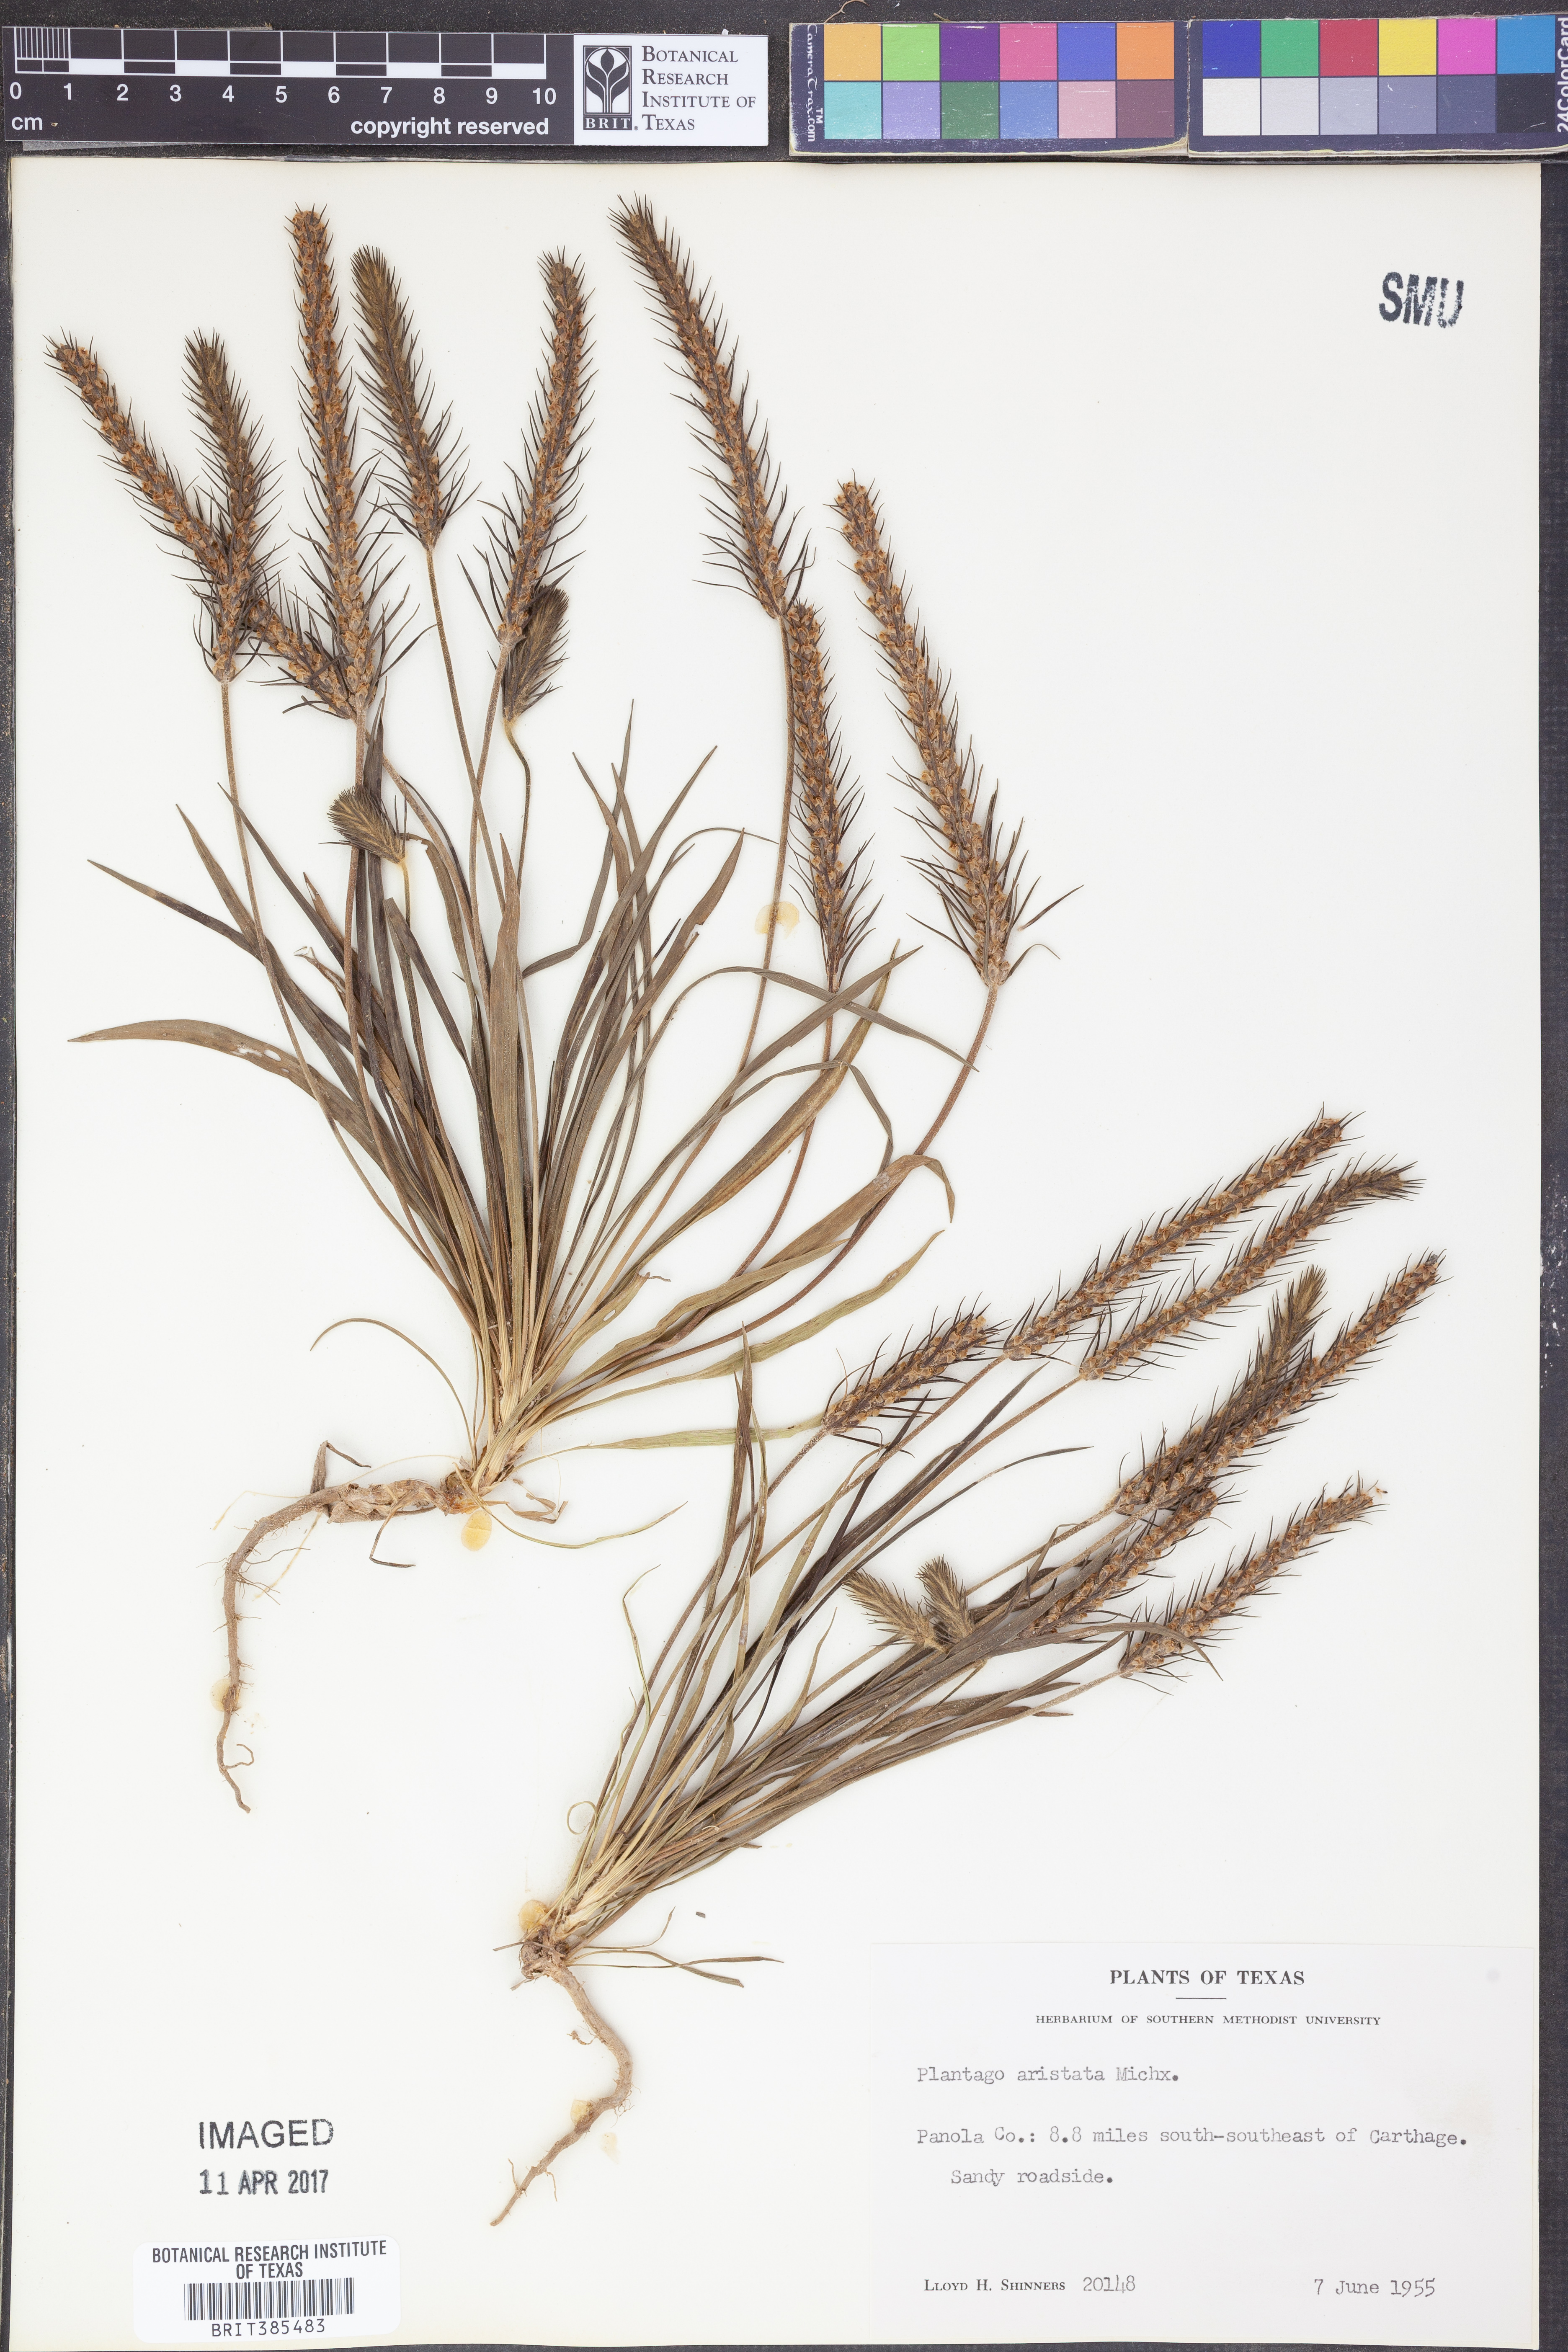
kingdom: Plantae
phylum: Tracheophyta
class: Magnoliopsida
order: Lamiales
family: Plantaginaceae
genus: Plantago
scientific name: Plantago aristata
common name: Bracted plantain
